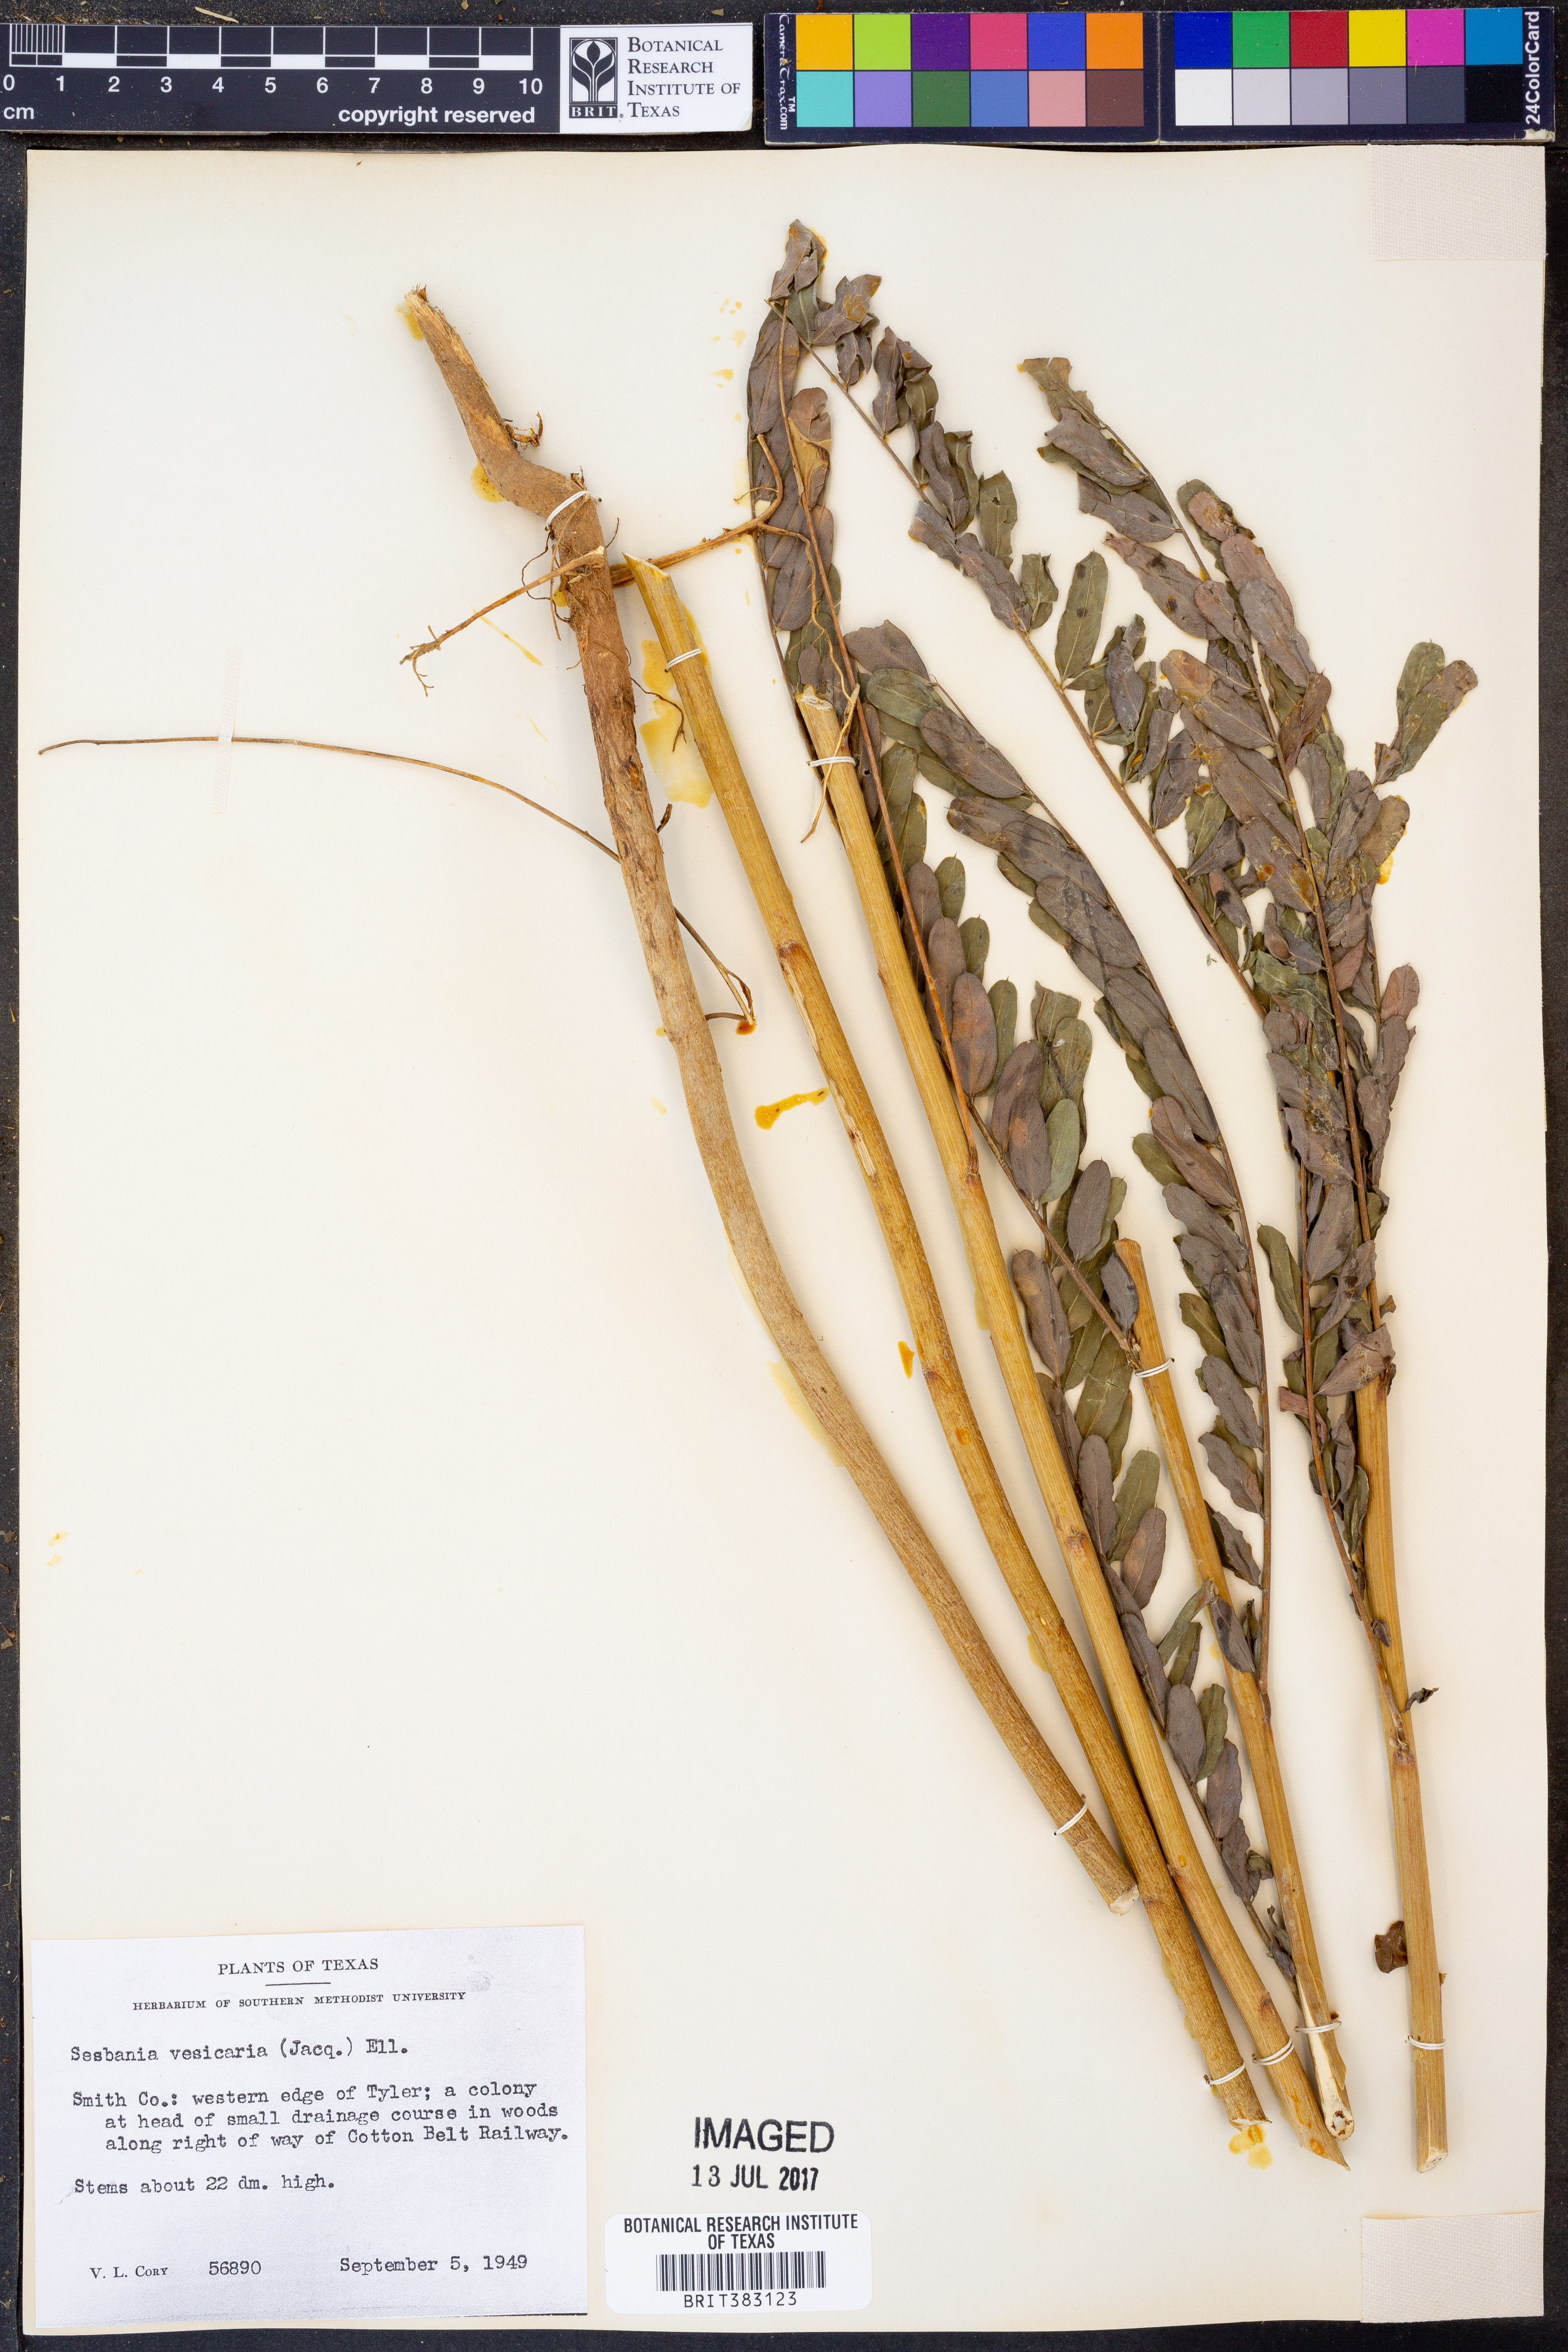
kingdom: Plantae
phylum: Tracheophyta
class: Magnoliopsida
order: Fabales
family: Fabaceae
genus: Sesbania
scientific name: Sesbania vesicaria
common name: Bagpod
